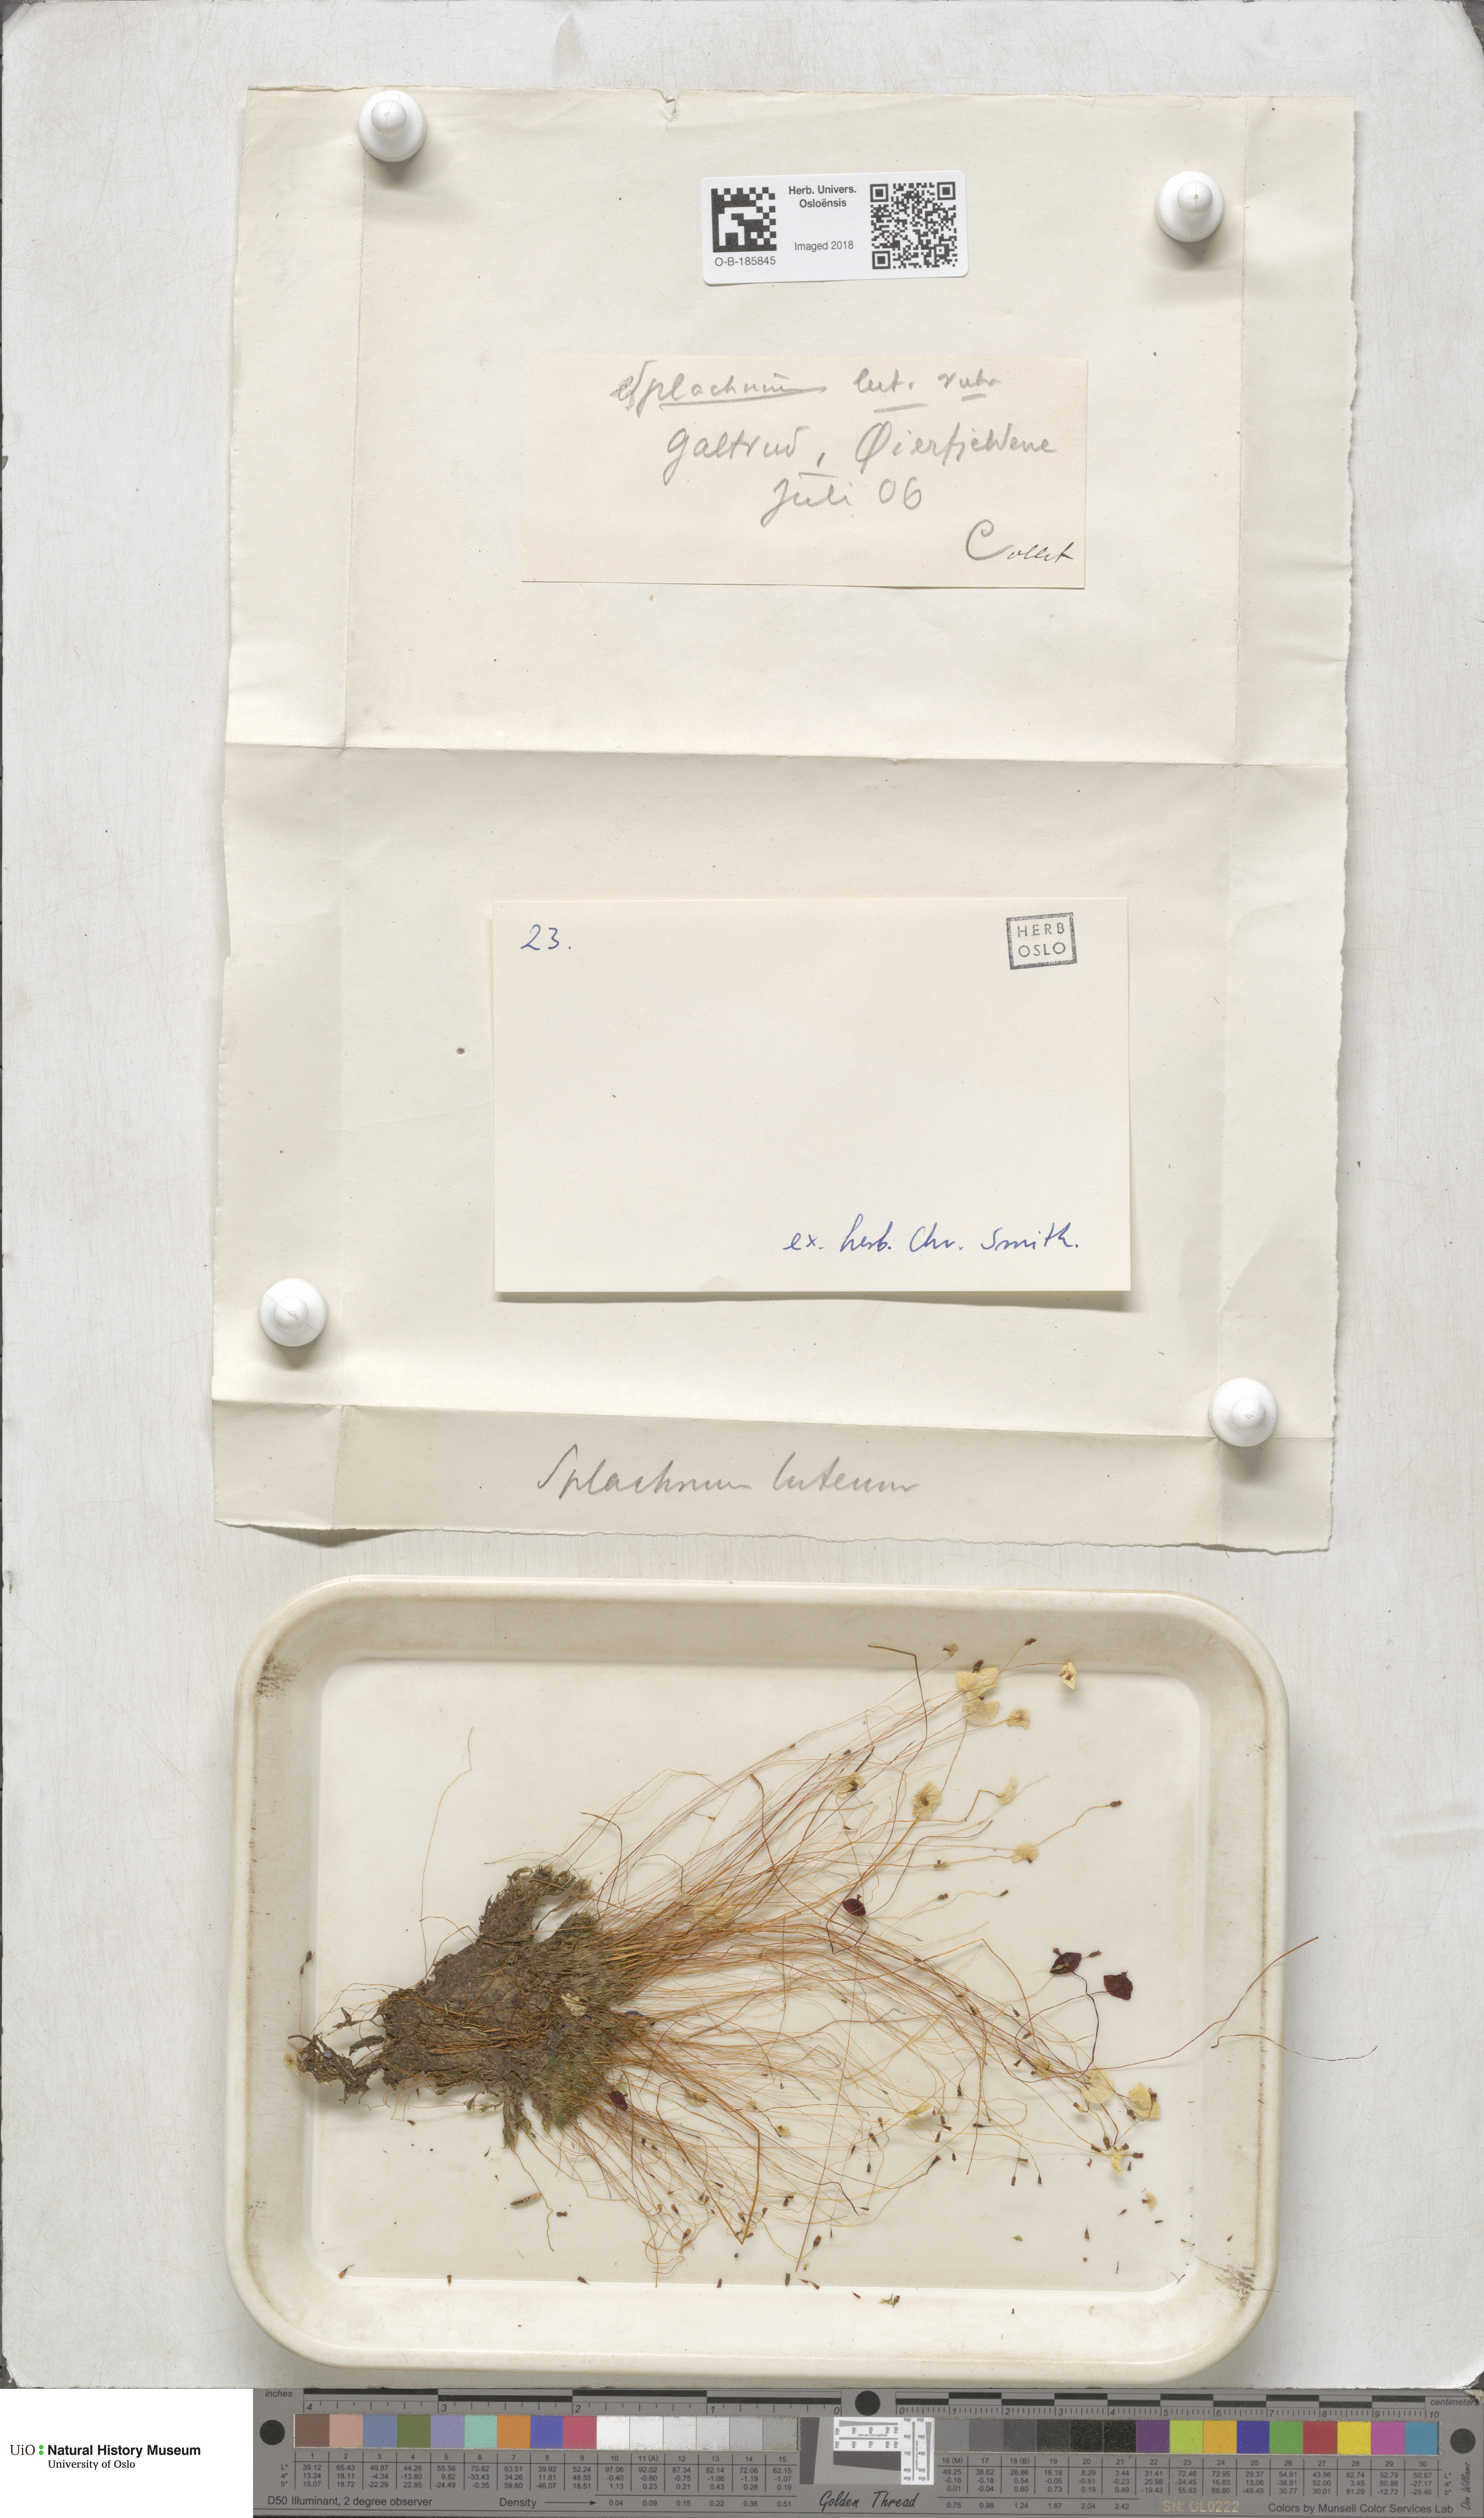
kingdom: Plantae
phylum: Bryophyta
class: Bryopsida
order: Splachnales
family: Splachnaceae
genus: Splachnum
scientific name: Splachnum luteum
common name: Yellow dung moss
